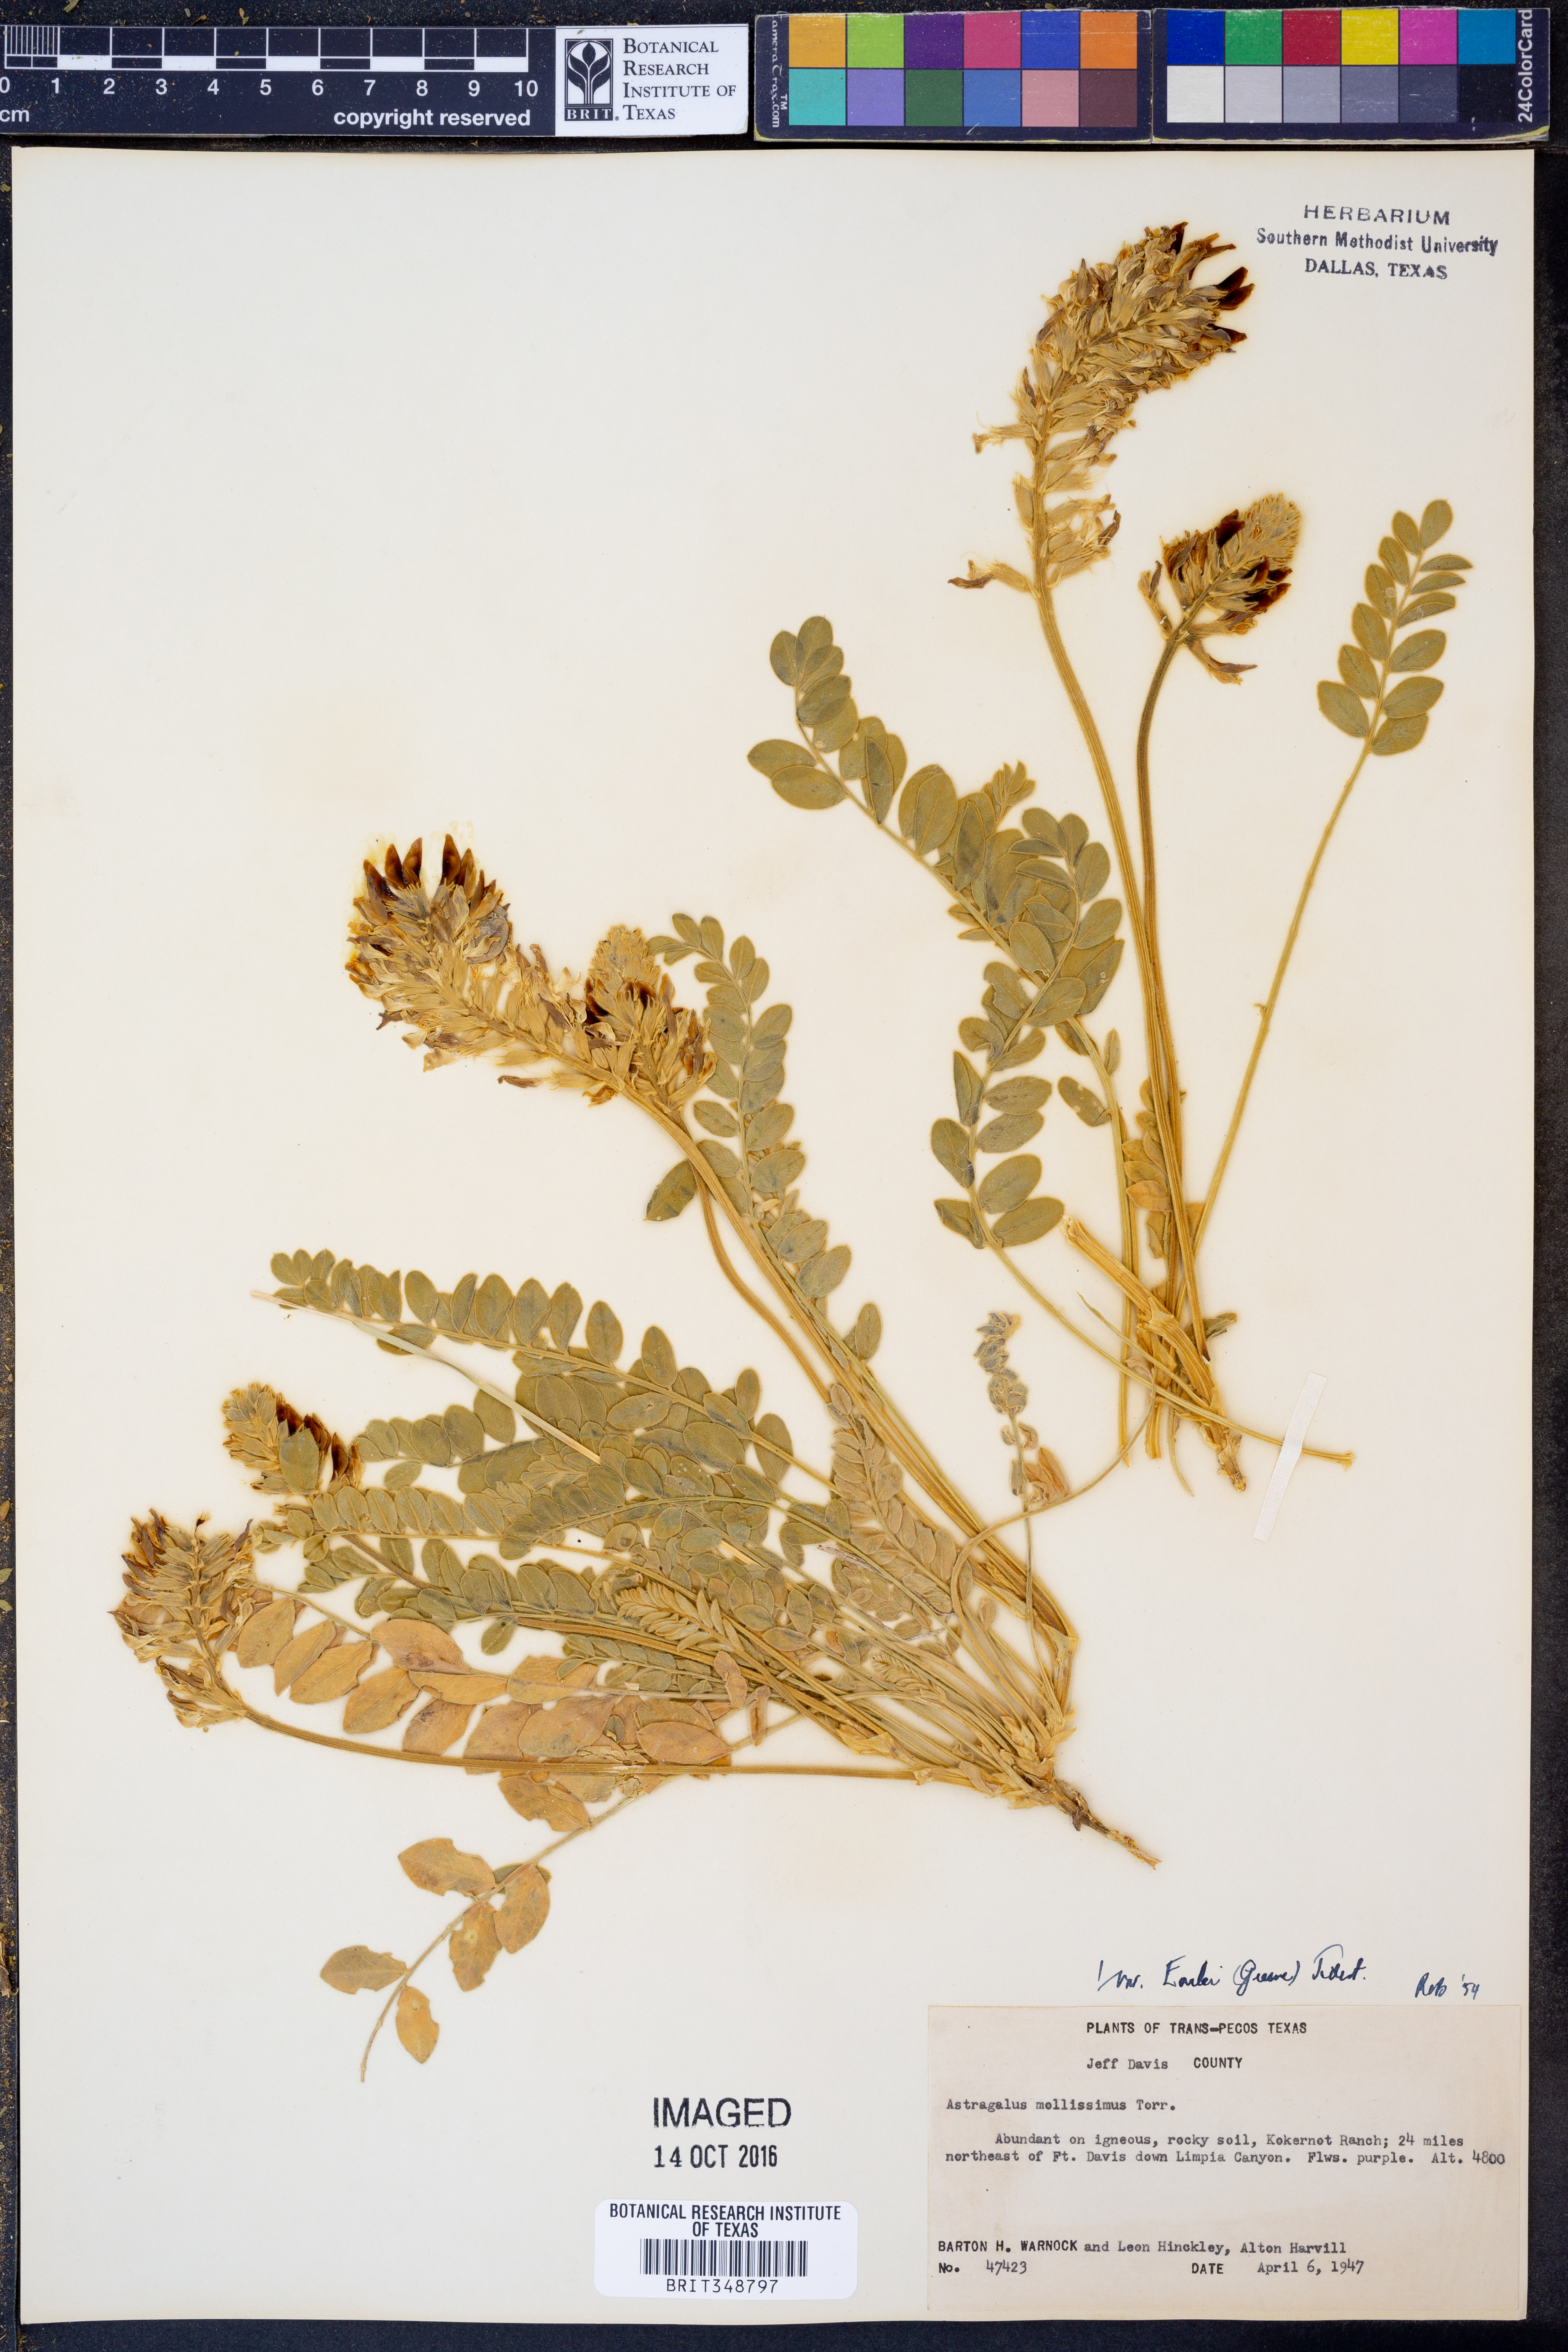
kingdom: Plantae
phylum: Tracheophyta
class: Magnoliopsida
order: Fabales
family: Fabaceae
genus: Astragalus
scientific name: Astragalus mollissimus
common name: Woolly locoweed
